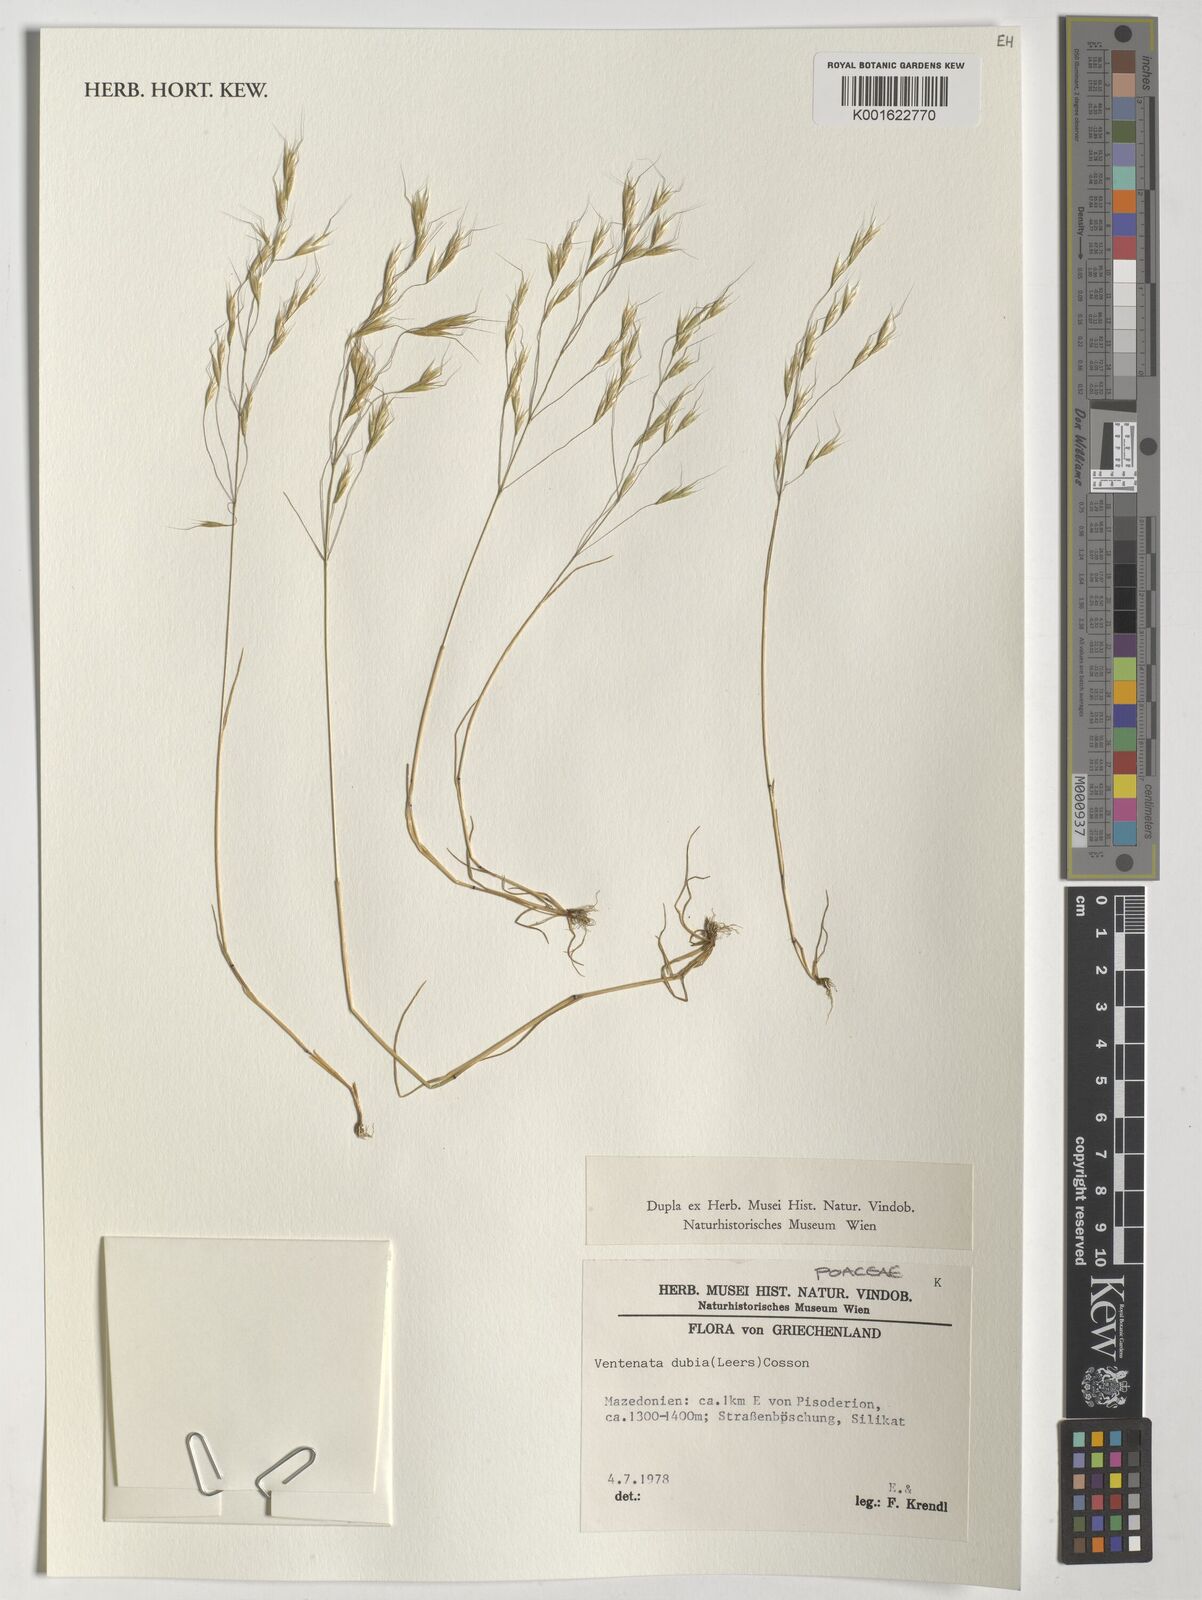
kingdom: Plantae
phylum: Tracheophyta
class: Liliopsida
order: Poales
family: Poaceae
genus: Ventenata
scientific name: Ventenata dubia
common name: North africa grass
